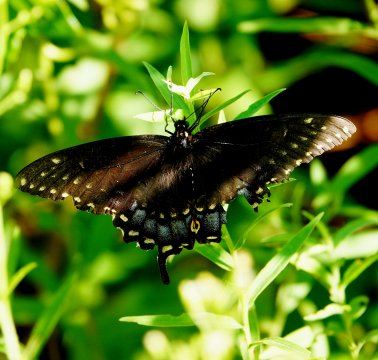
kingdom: Animalia
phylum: Arthropoda
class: Insecta
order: Lepidoptera
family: Papilionidae
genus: Papilio
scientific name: Papilio polyxenes
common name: Black Swallowtail
